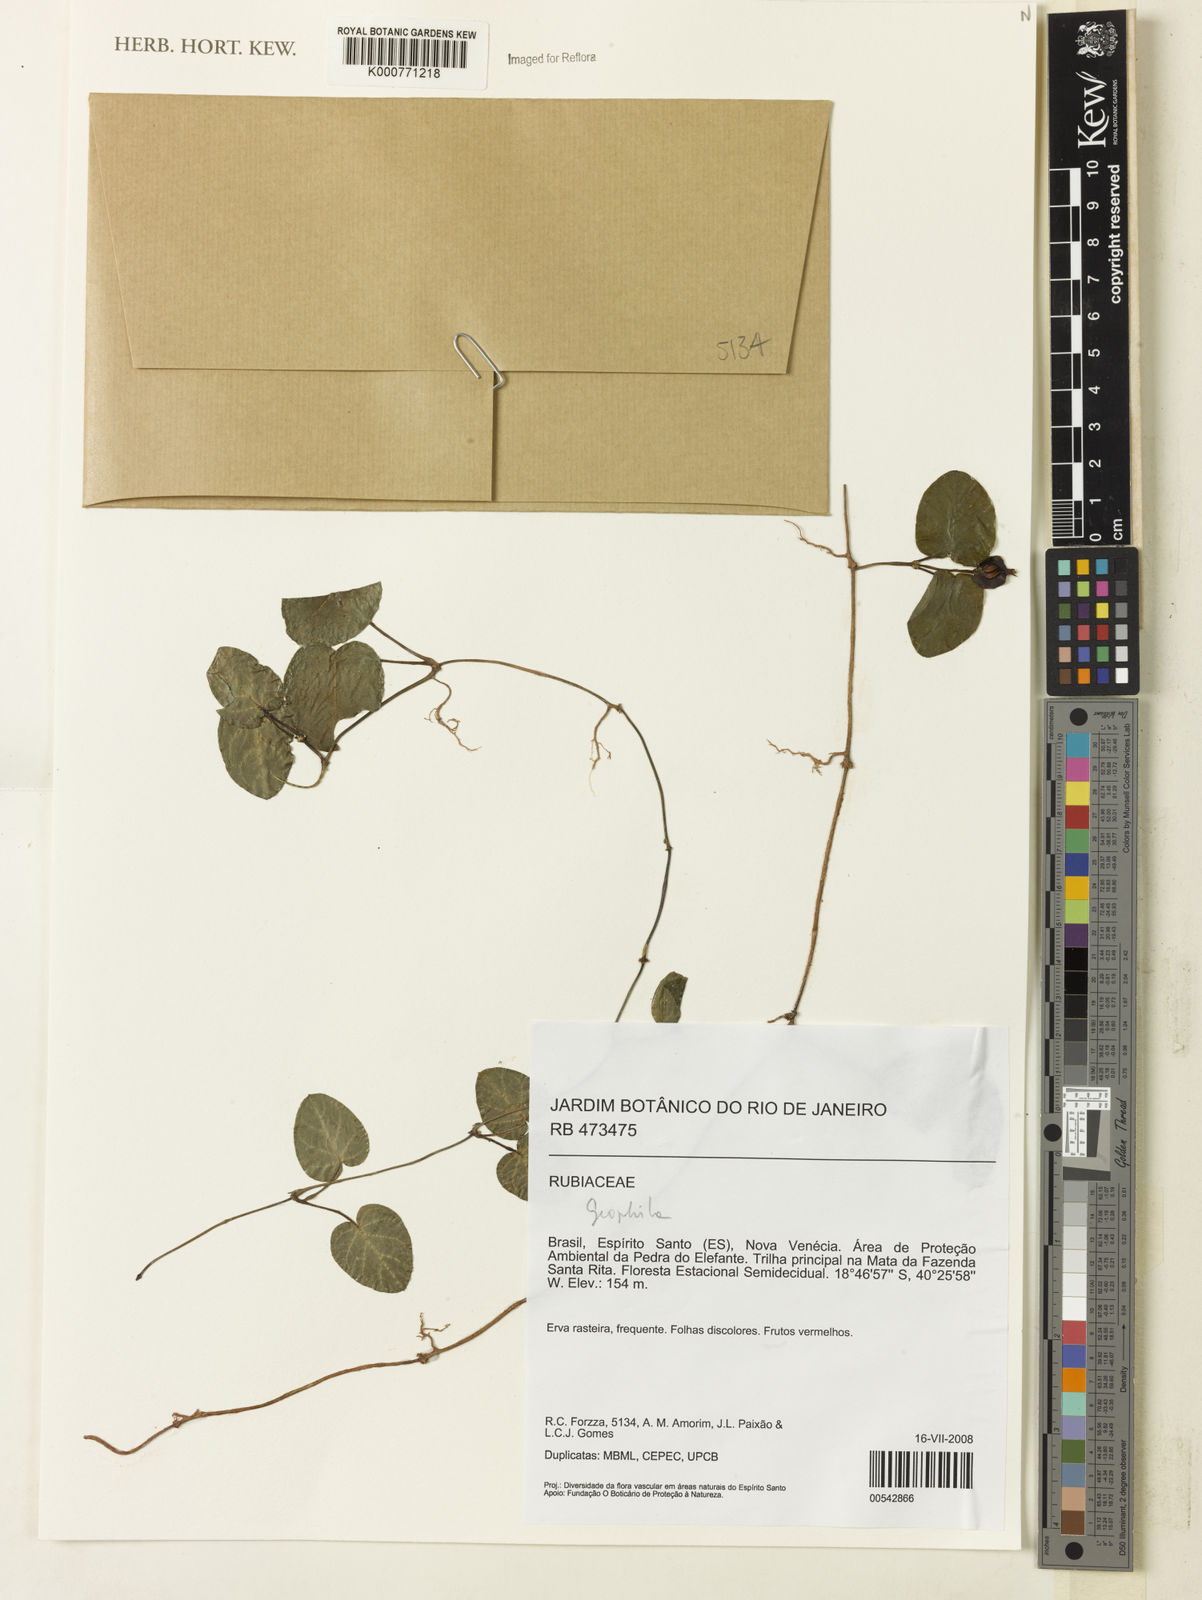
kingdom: Plantae
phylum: Tracheophyta
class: Magnoliopsida
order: Gentianales
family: Rubiaceae
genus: Geophila
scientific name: Geophila
